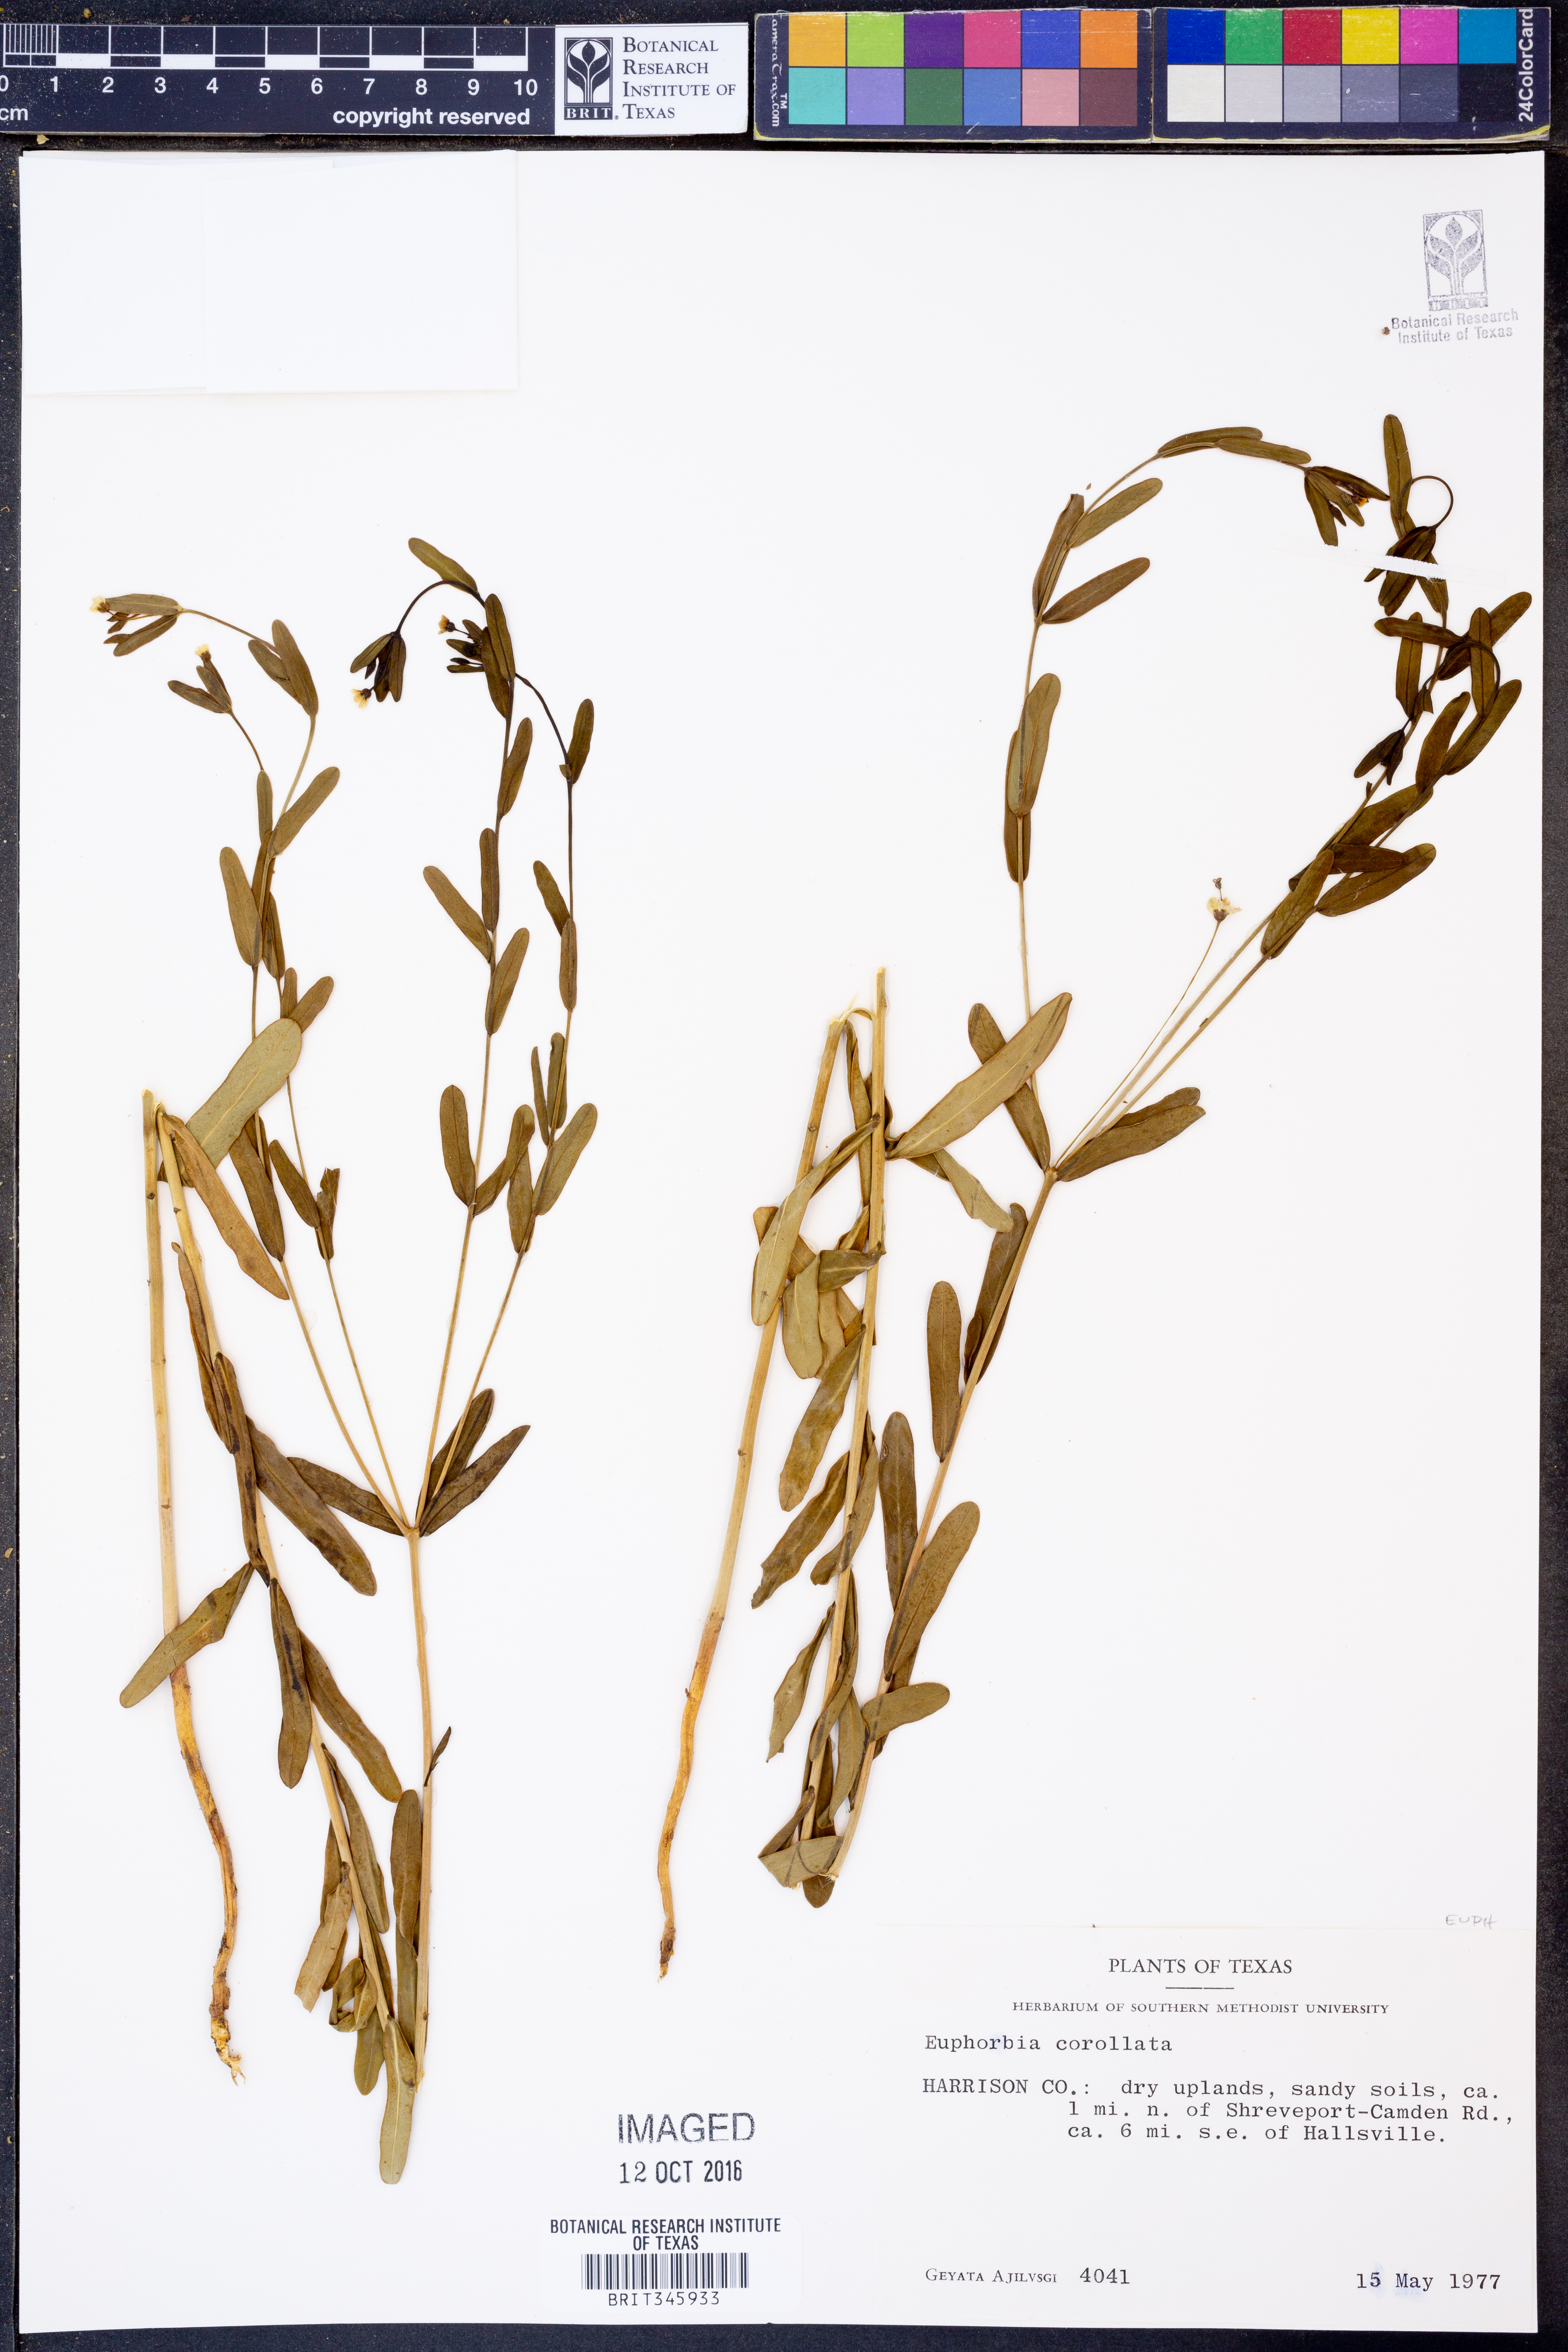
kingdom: Plantae
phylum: Tracheophyta
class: Magnoliopsida
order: Malpighiales
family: Euphorbiaceae
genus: Euphorbia
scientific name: Euphorbia corollata
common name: Flowering spurge
